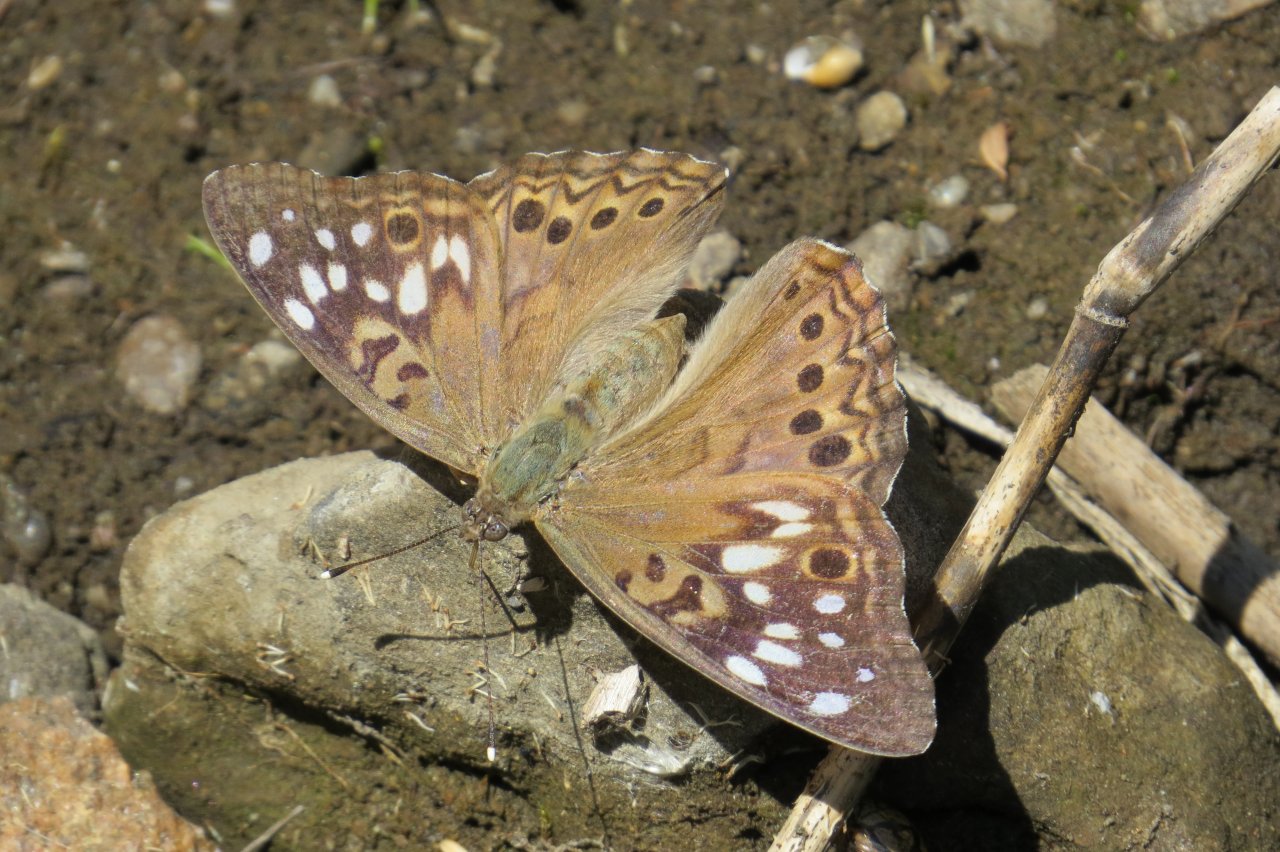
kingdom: Animalia
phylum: Arthropoda
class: Insecta
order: Lepidoptera
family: Nymphalidae
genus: Asterocampa
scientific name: Asterocampa celtis
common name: Hackberry Emperor
